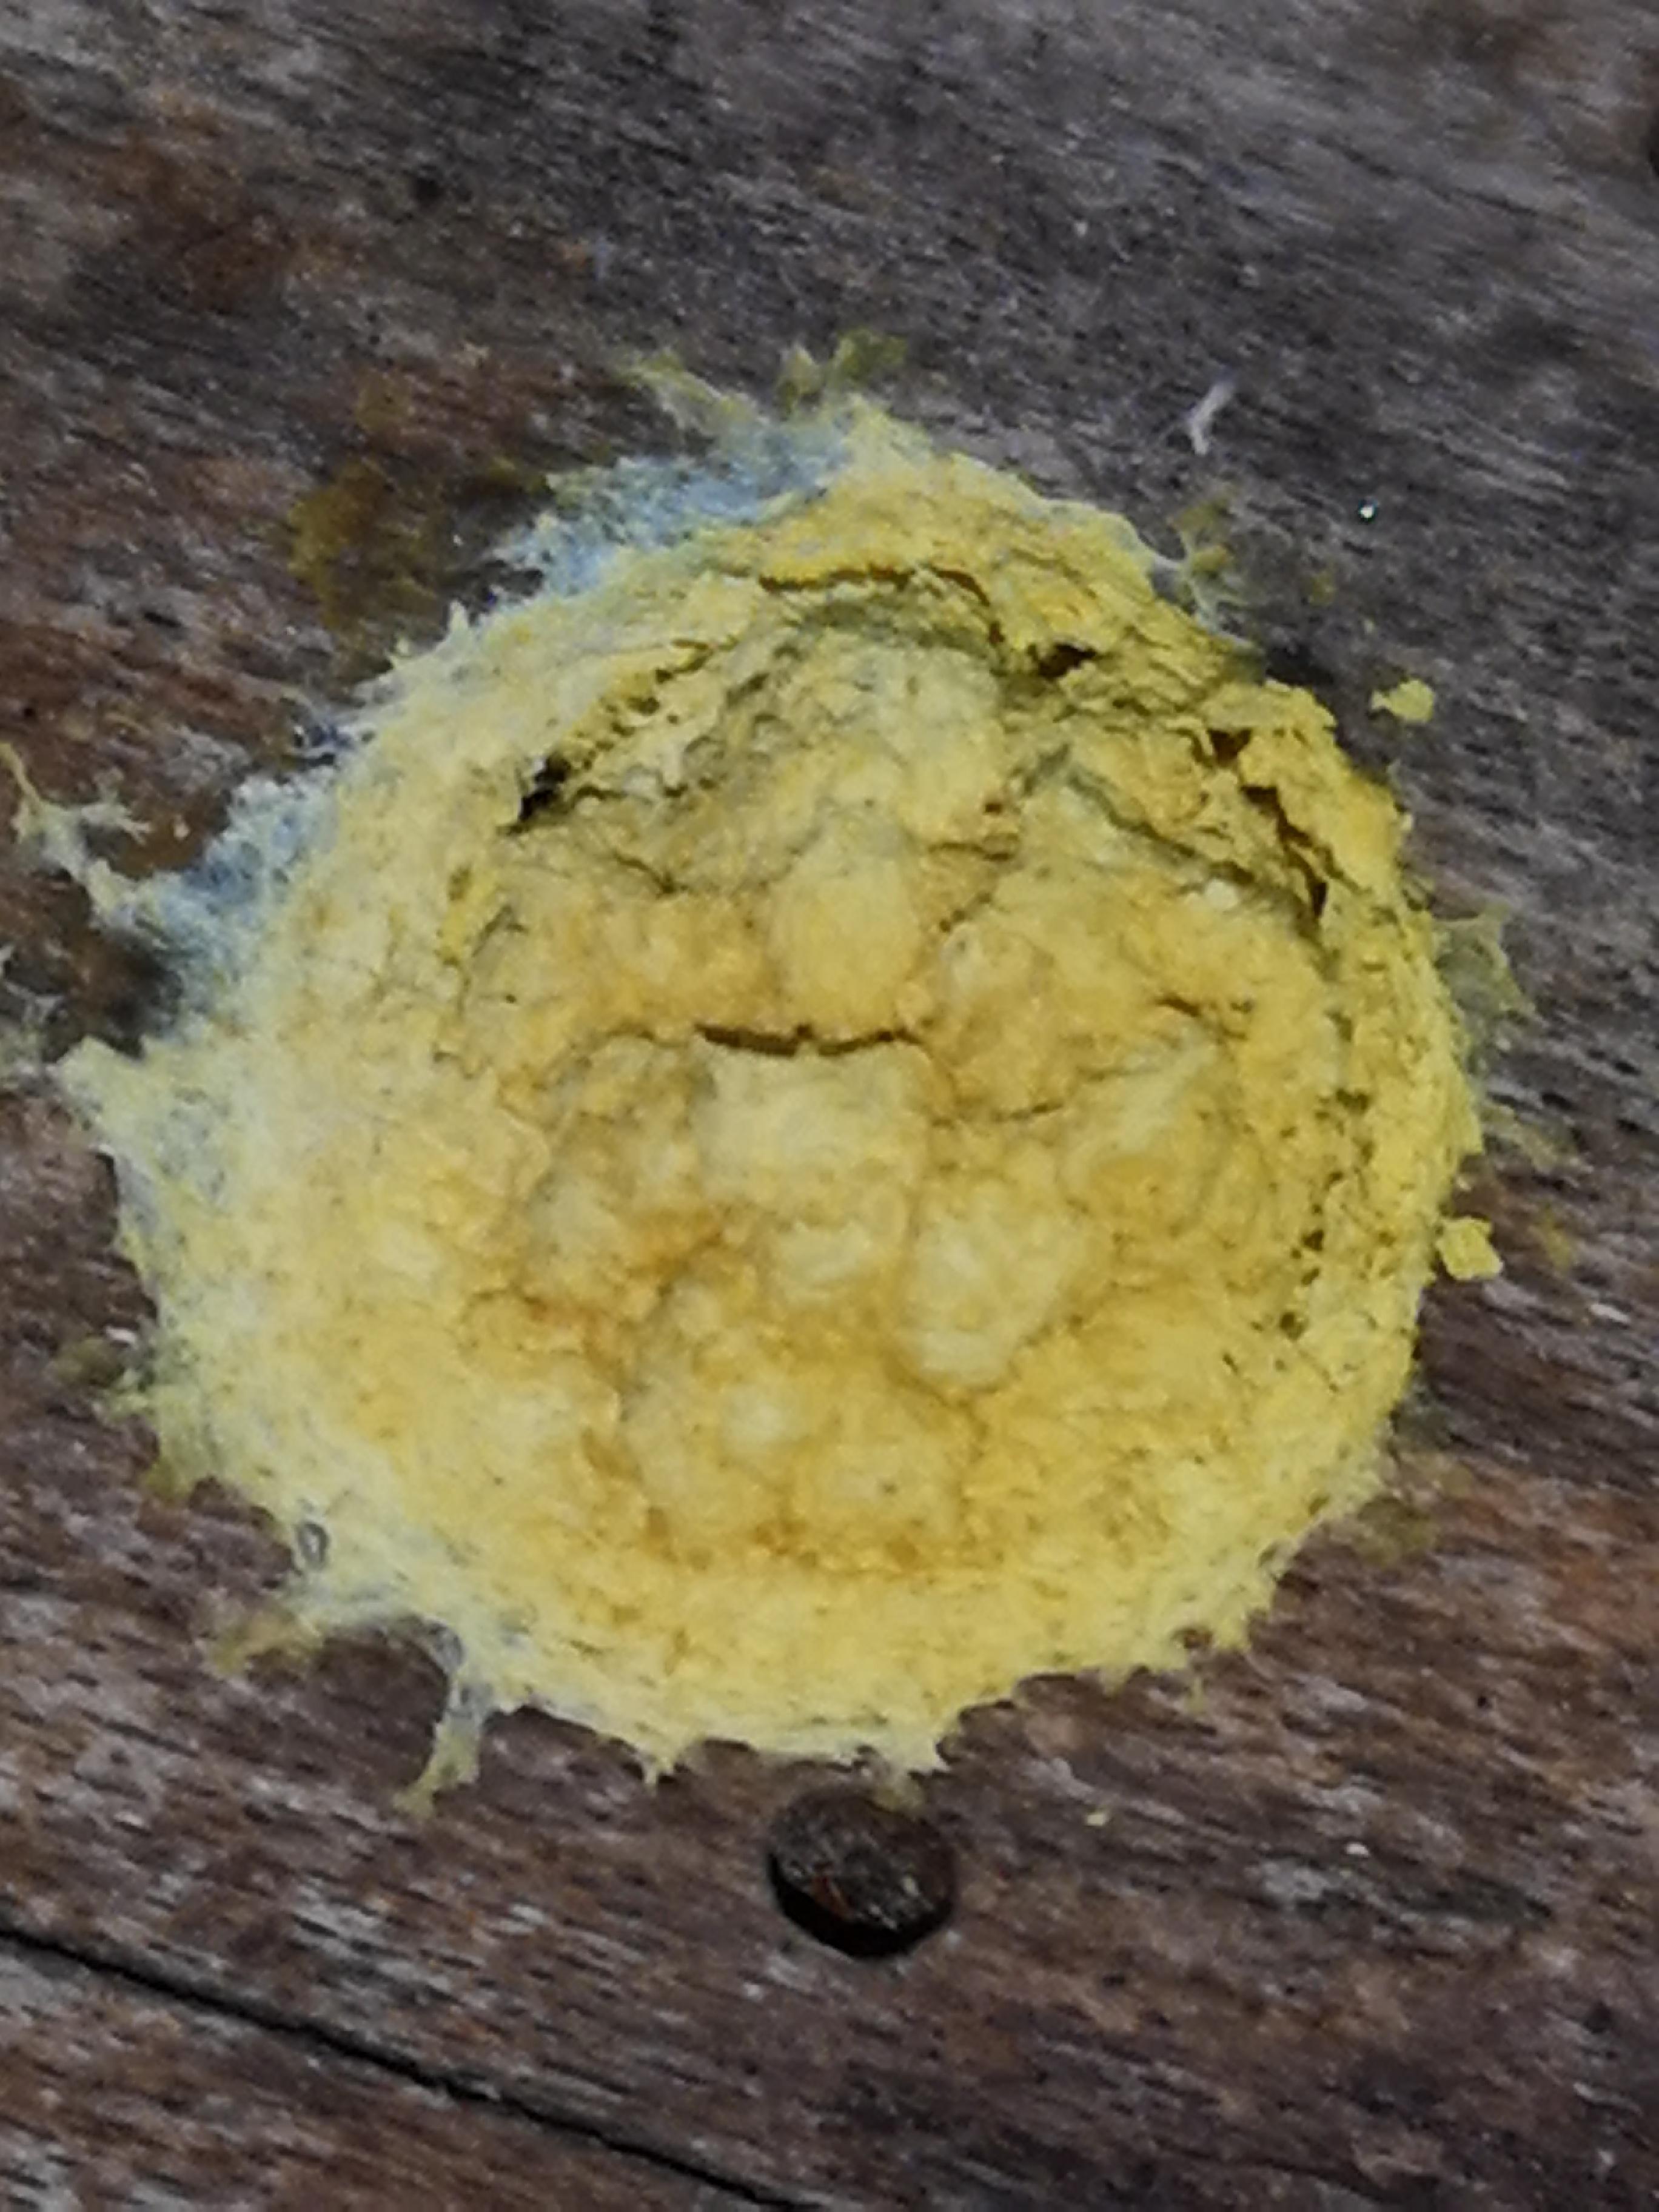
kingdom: Protozoa
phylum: Mycetozoa
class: Myxomycetes
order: Physarales
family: Physaraceae
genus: Fuligo
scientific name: Fuligo
